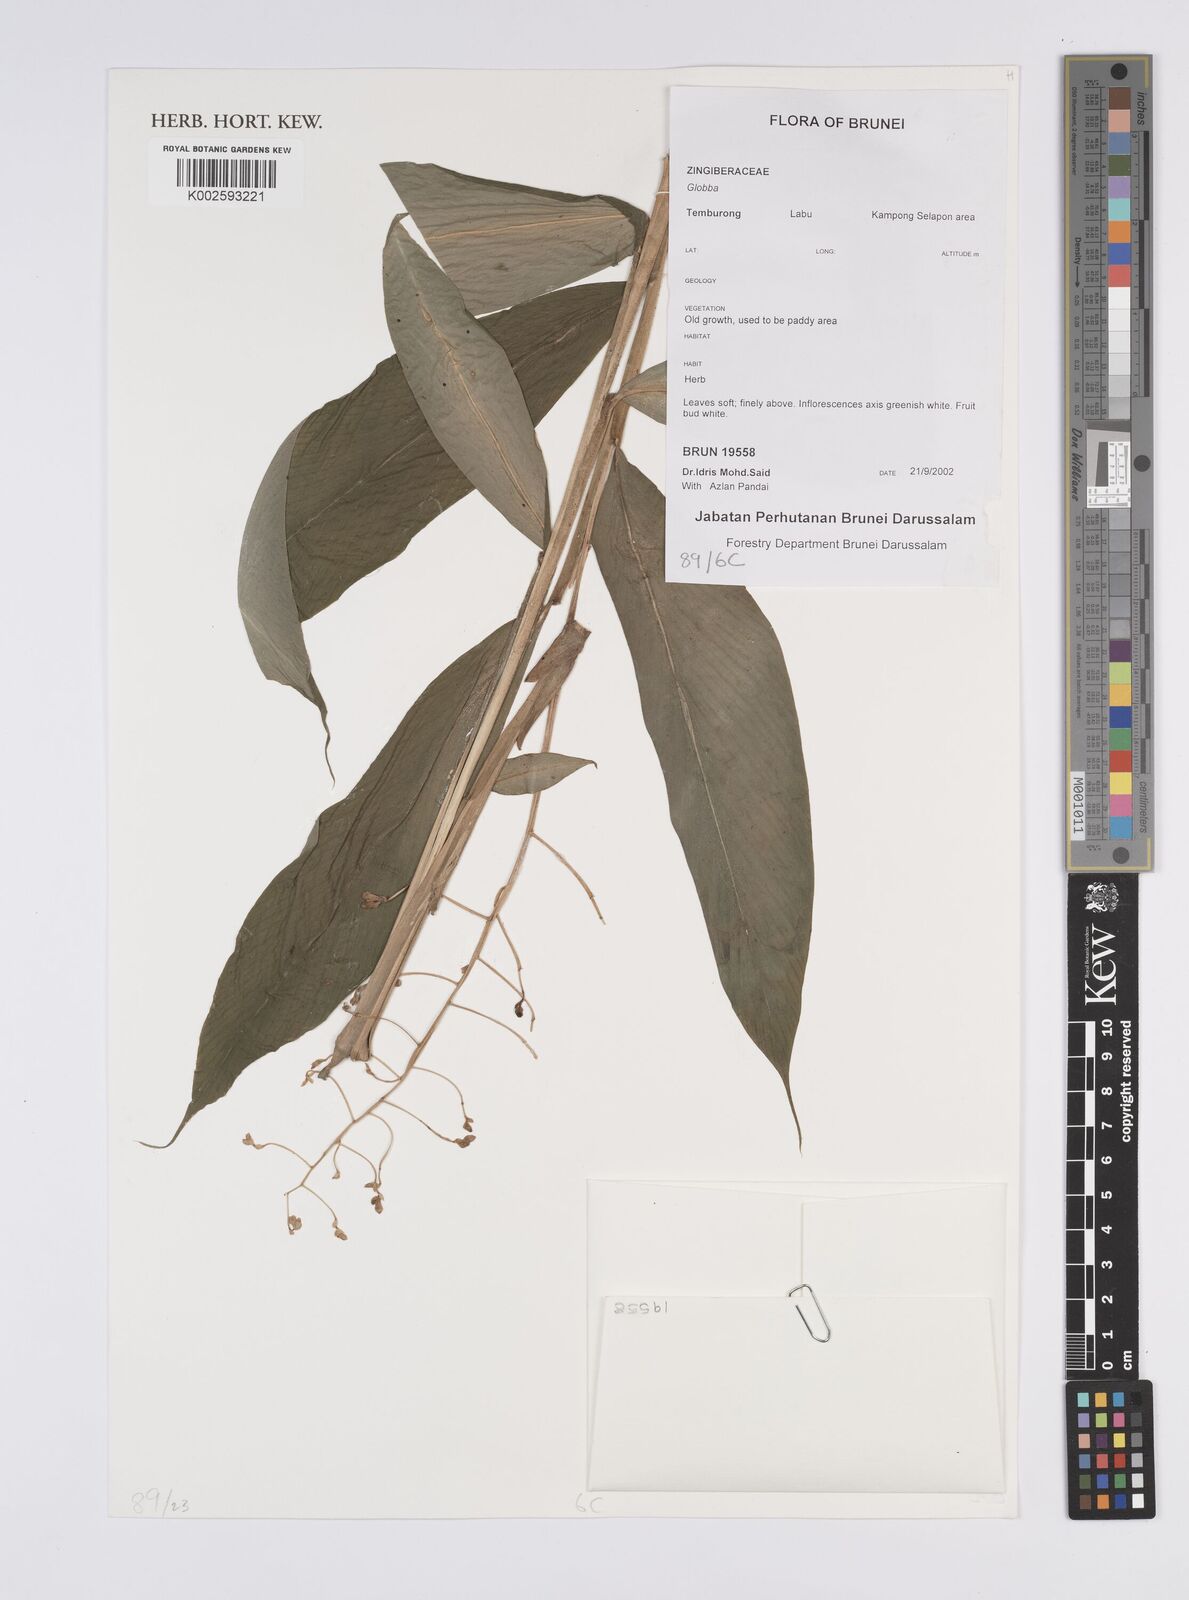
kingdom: Plantae
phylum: Tracheophyta
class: Liliopsida
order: Zingiberales
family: Zingiberaceae
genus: Globba
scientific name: Globba
